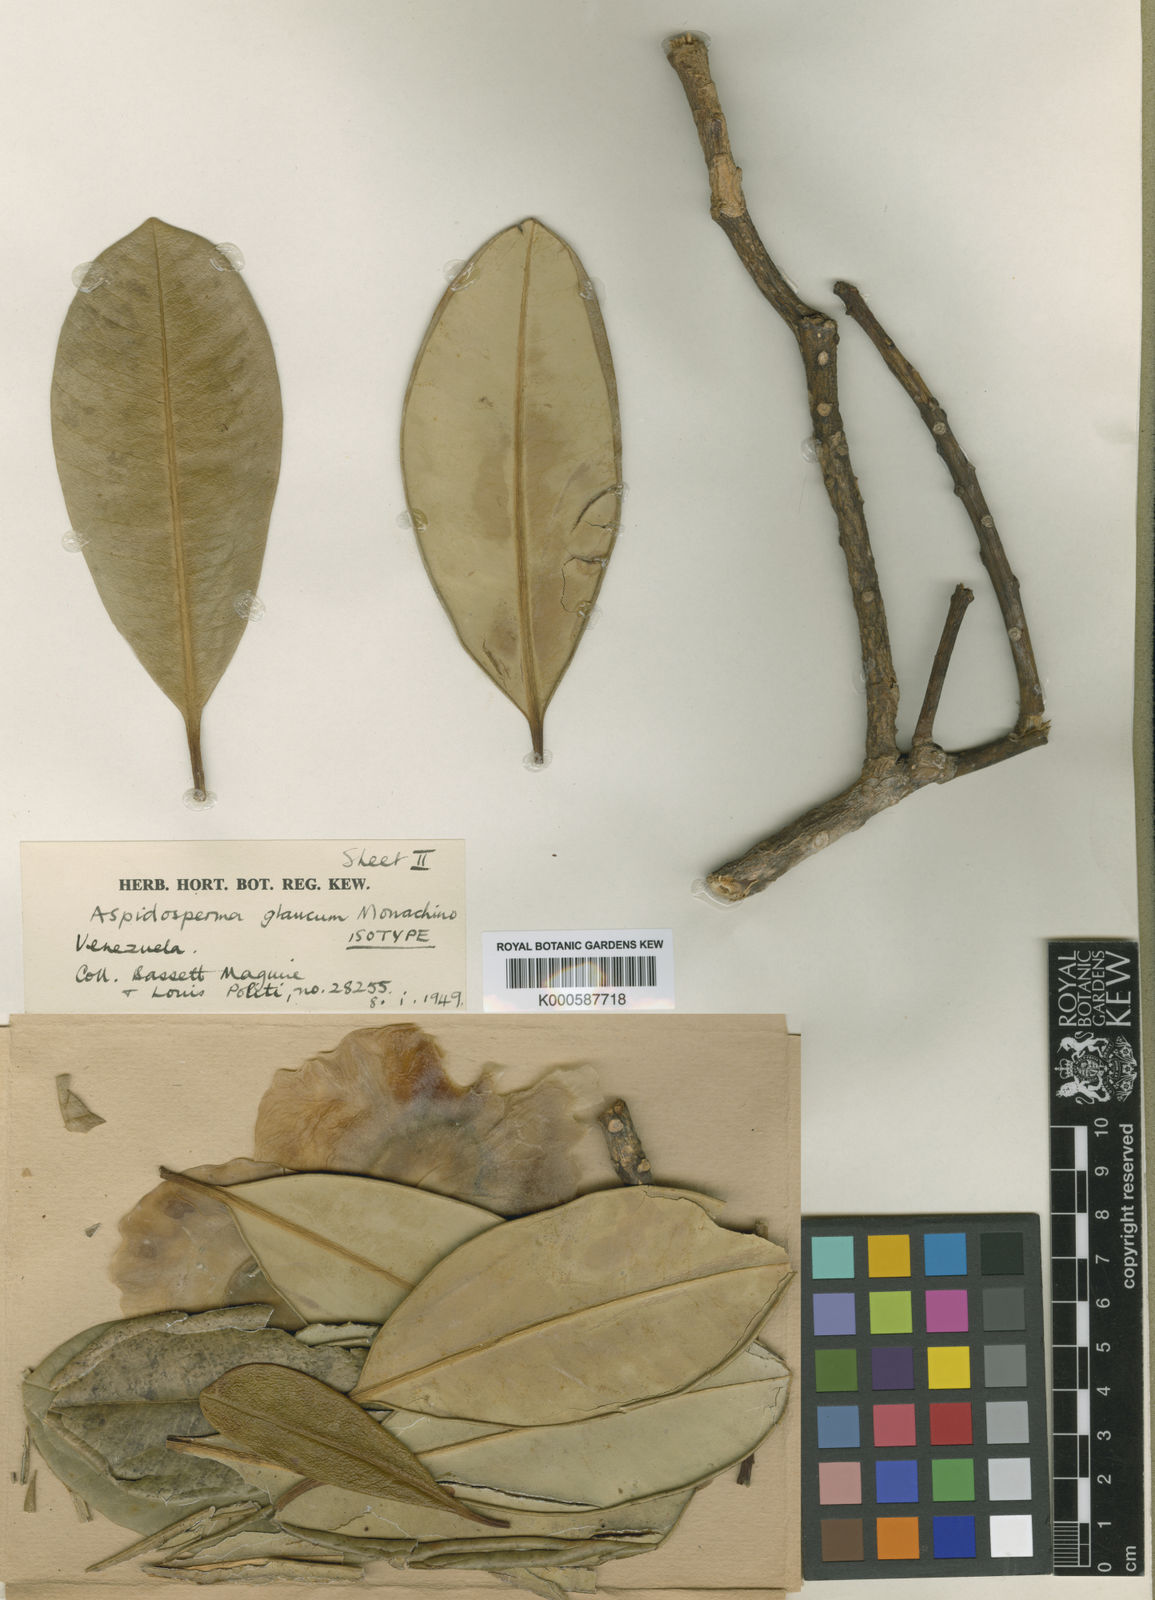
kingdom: Plantae
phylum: Tracheophyta
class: Magnoliopsida
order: Gentianales
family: Apocynaceae
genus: Aspidosperma
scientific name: Aspidosperma glaucum
